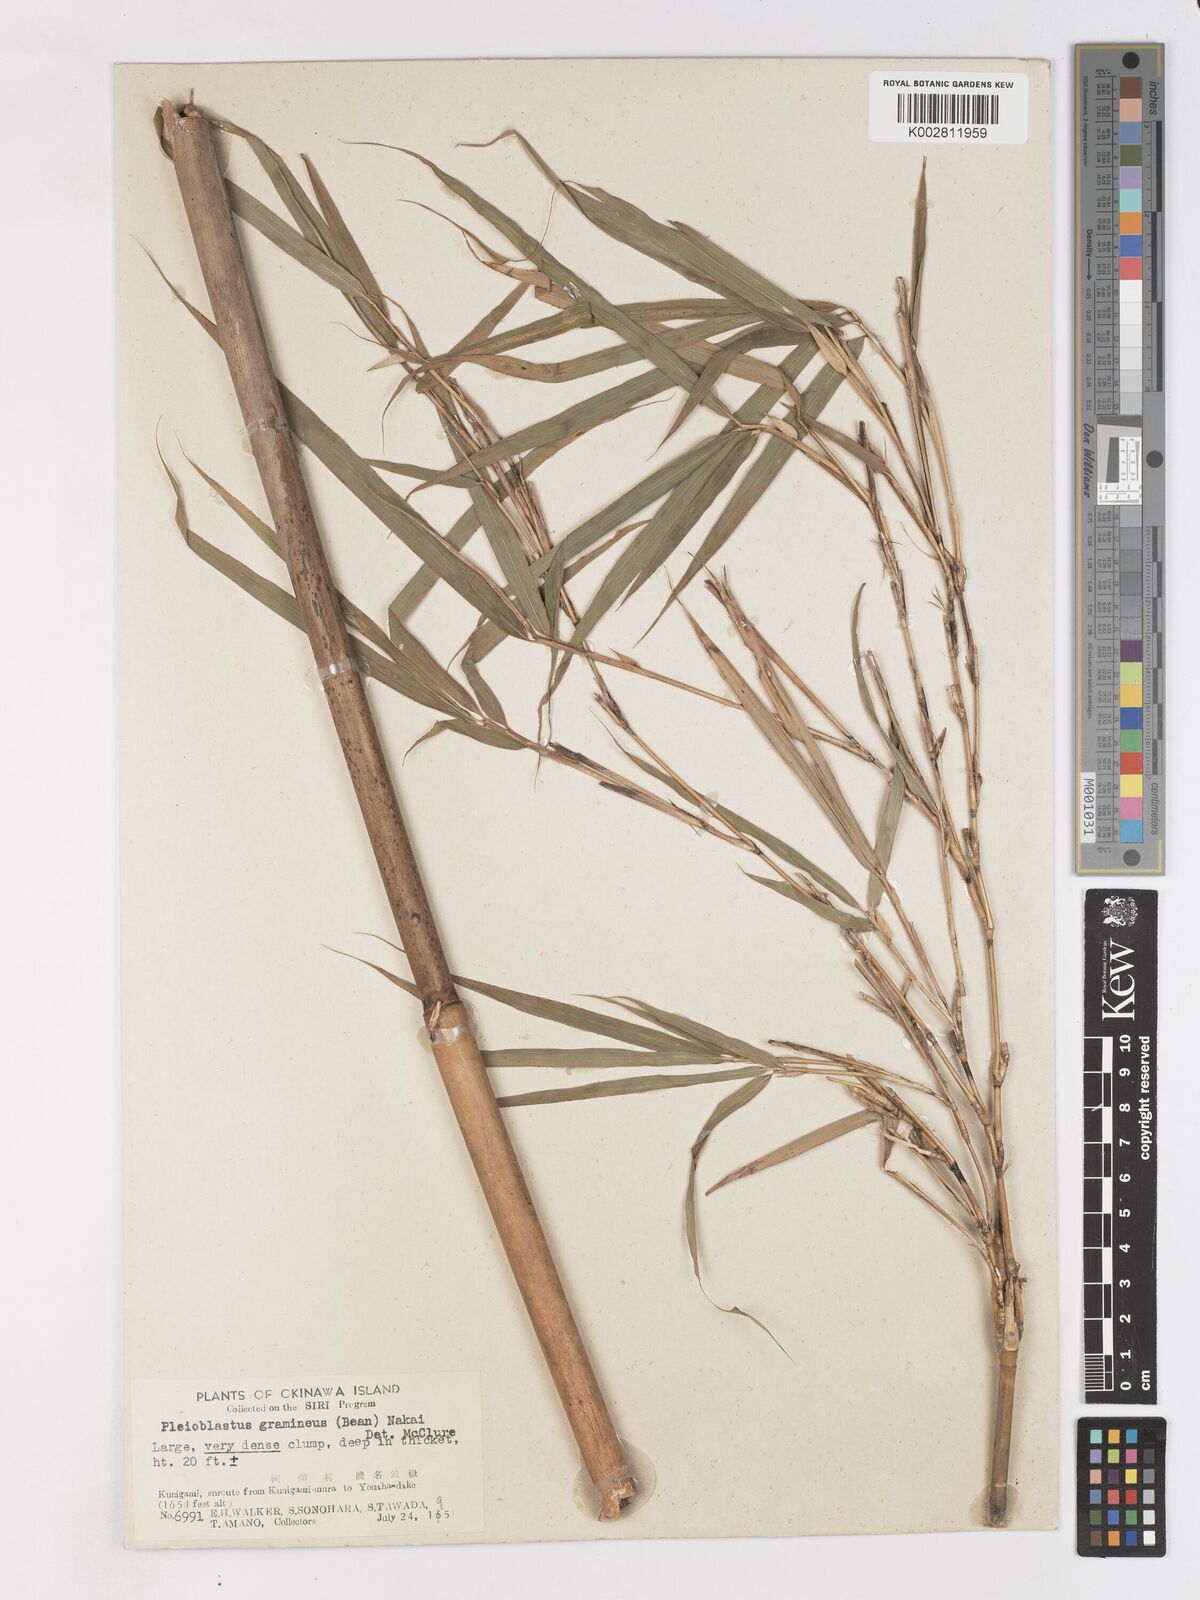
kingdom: Plantae
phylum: Tracheophyta
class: Liliopsida
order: Poales
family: Poaceae
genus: Pleioblastus
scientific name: Pleioblastus gramineus
